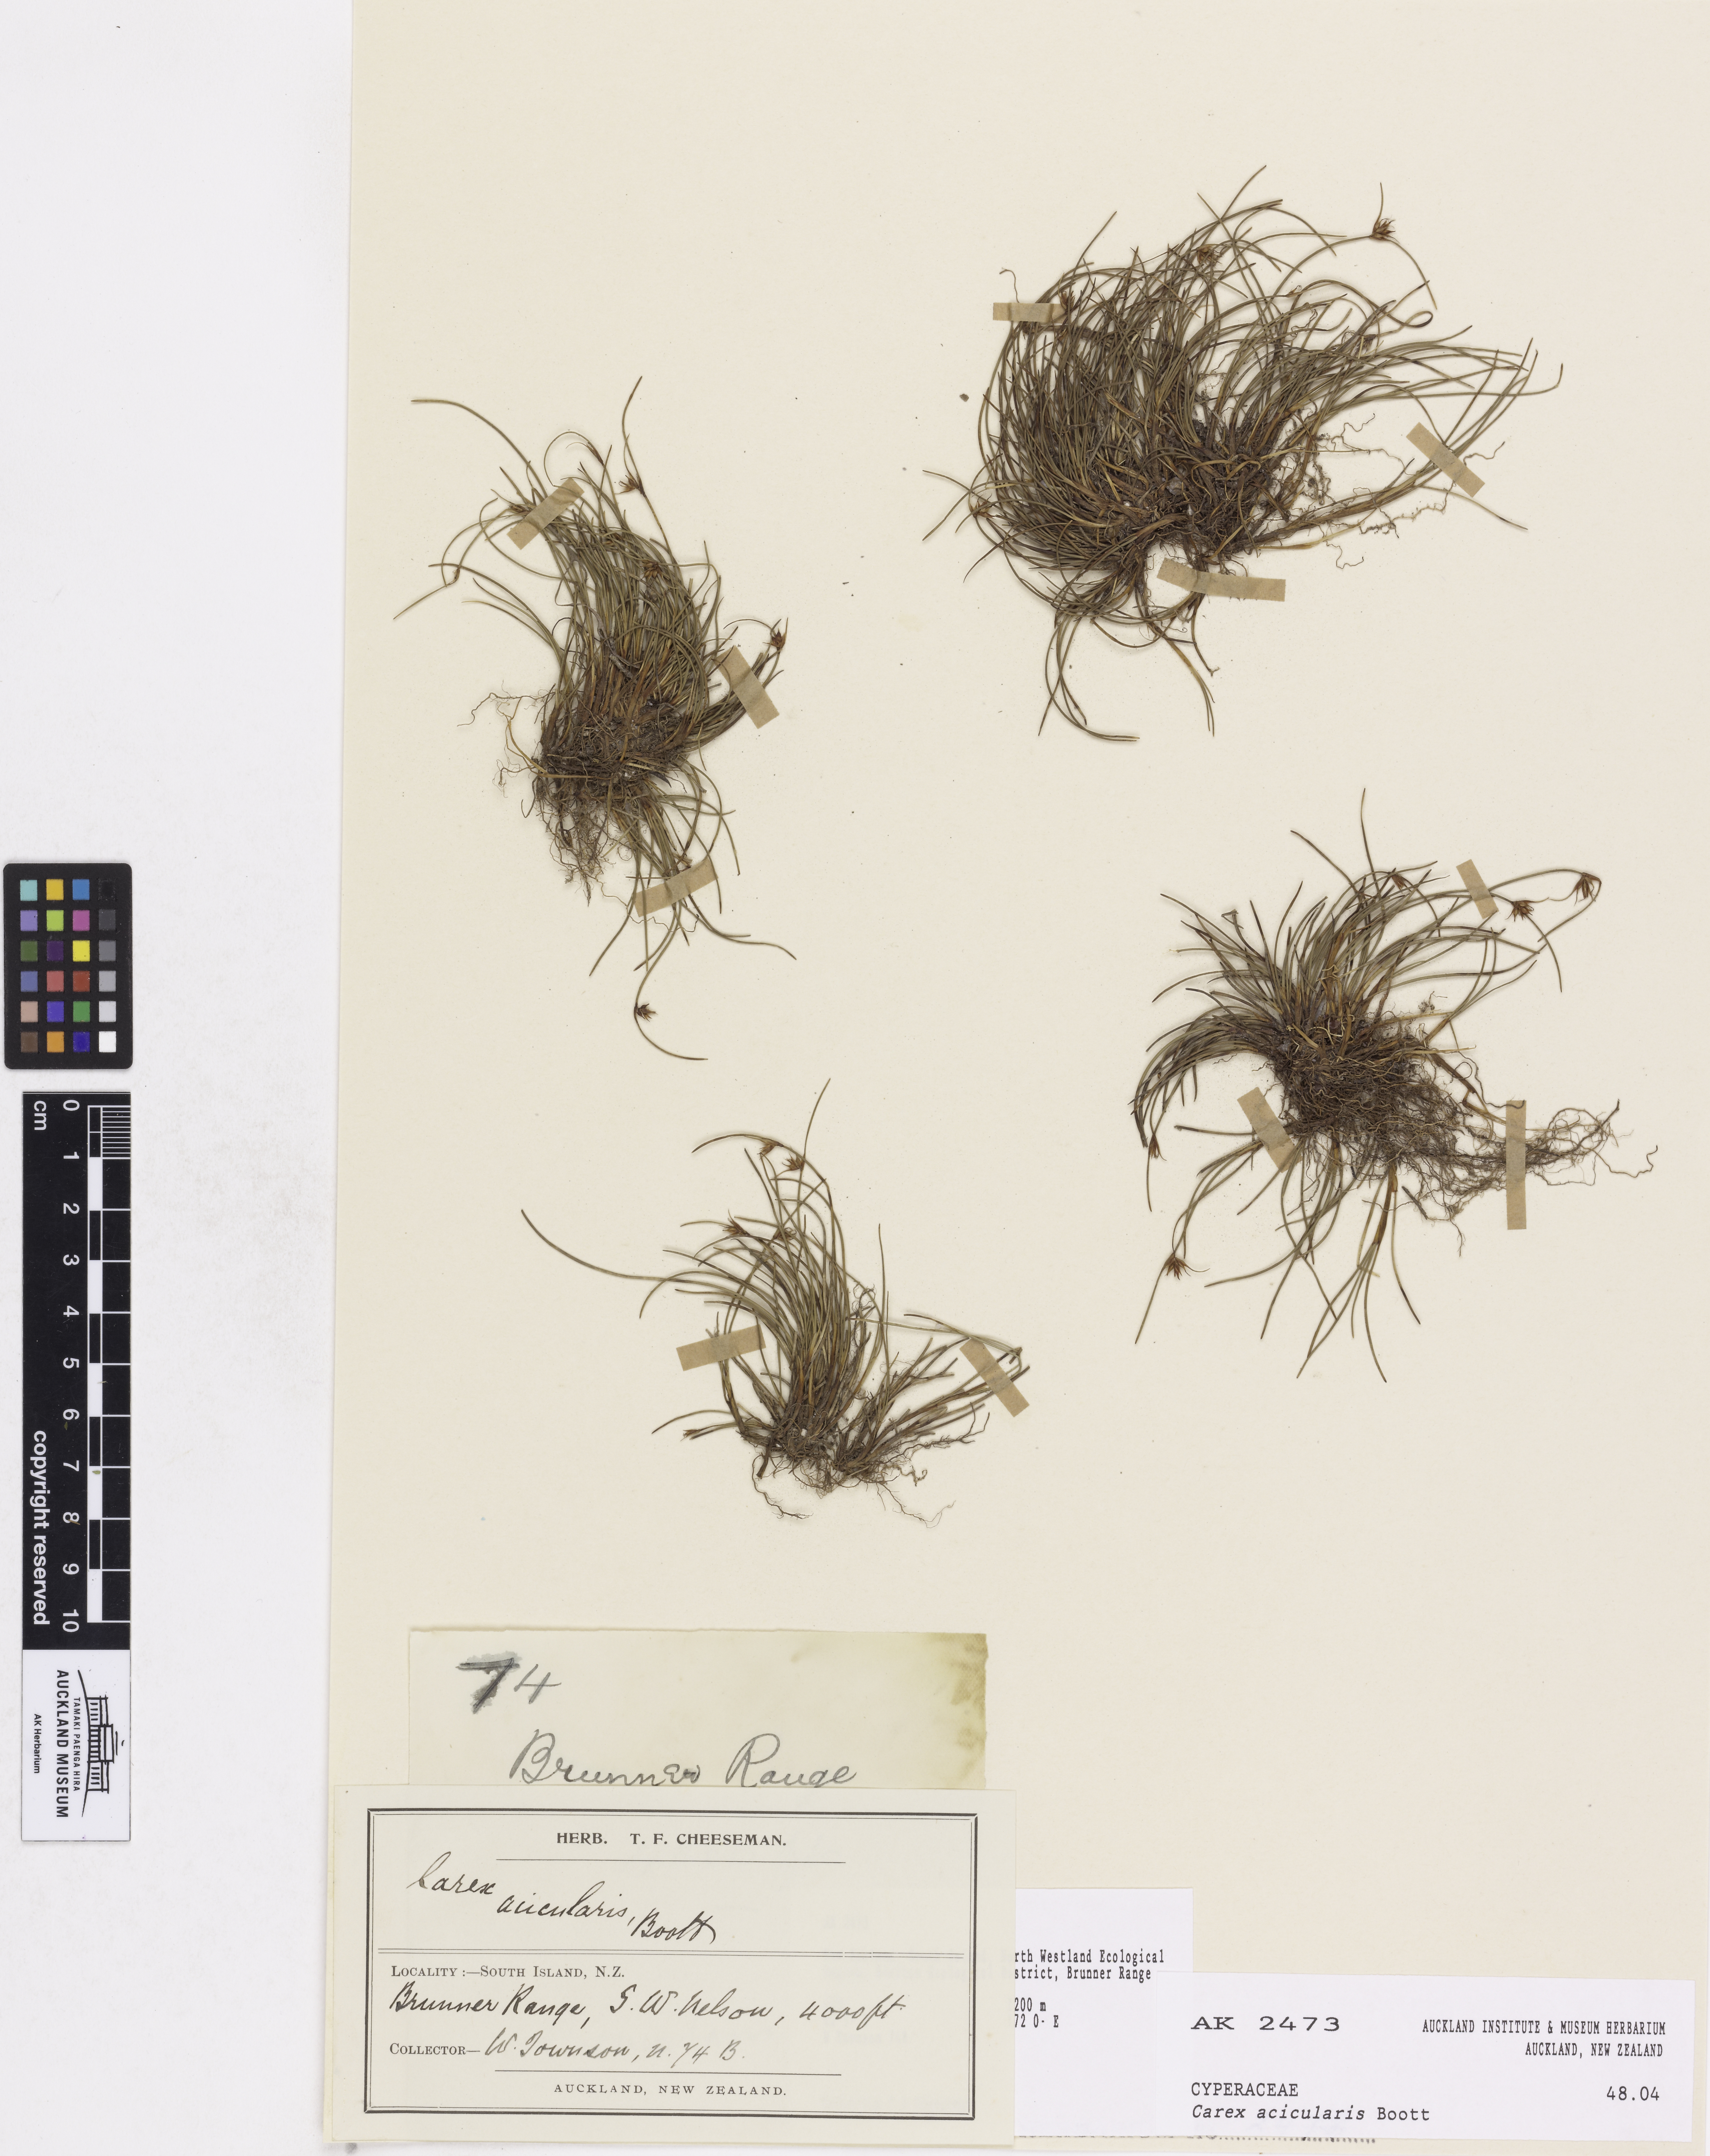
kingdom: Plantae
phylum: Tracheophyta
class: Liliopsida
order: Poales
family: Cyperaceae
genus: Carex
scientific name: Carex acicularis
